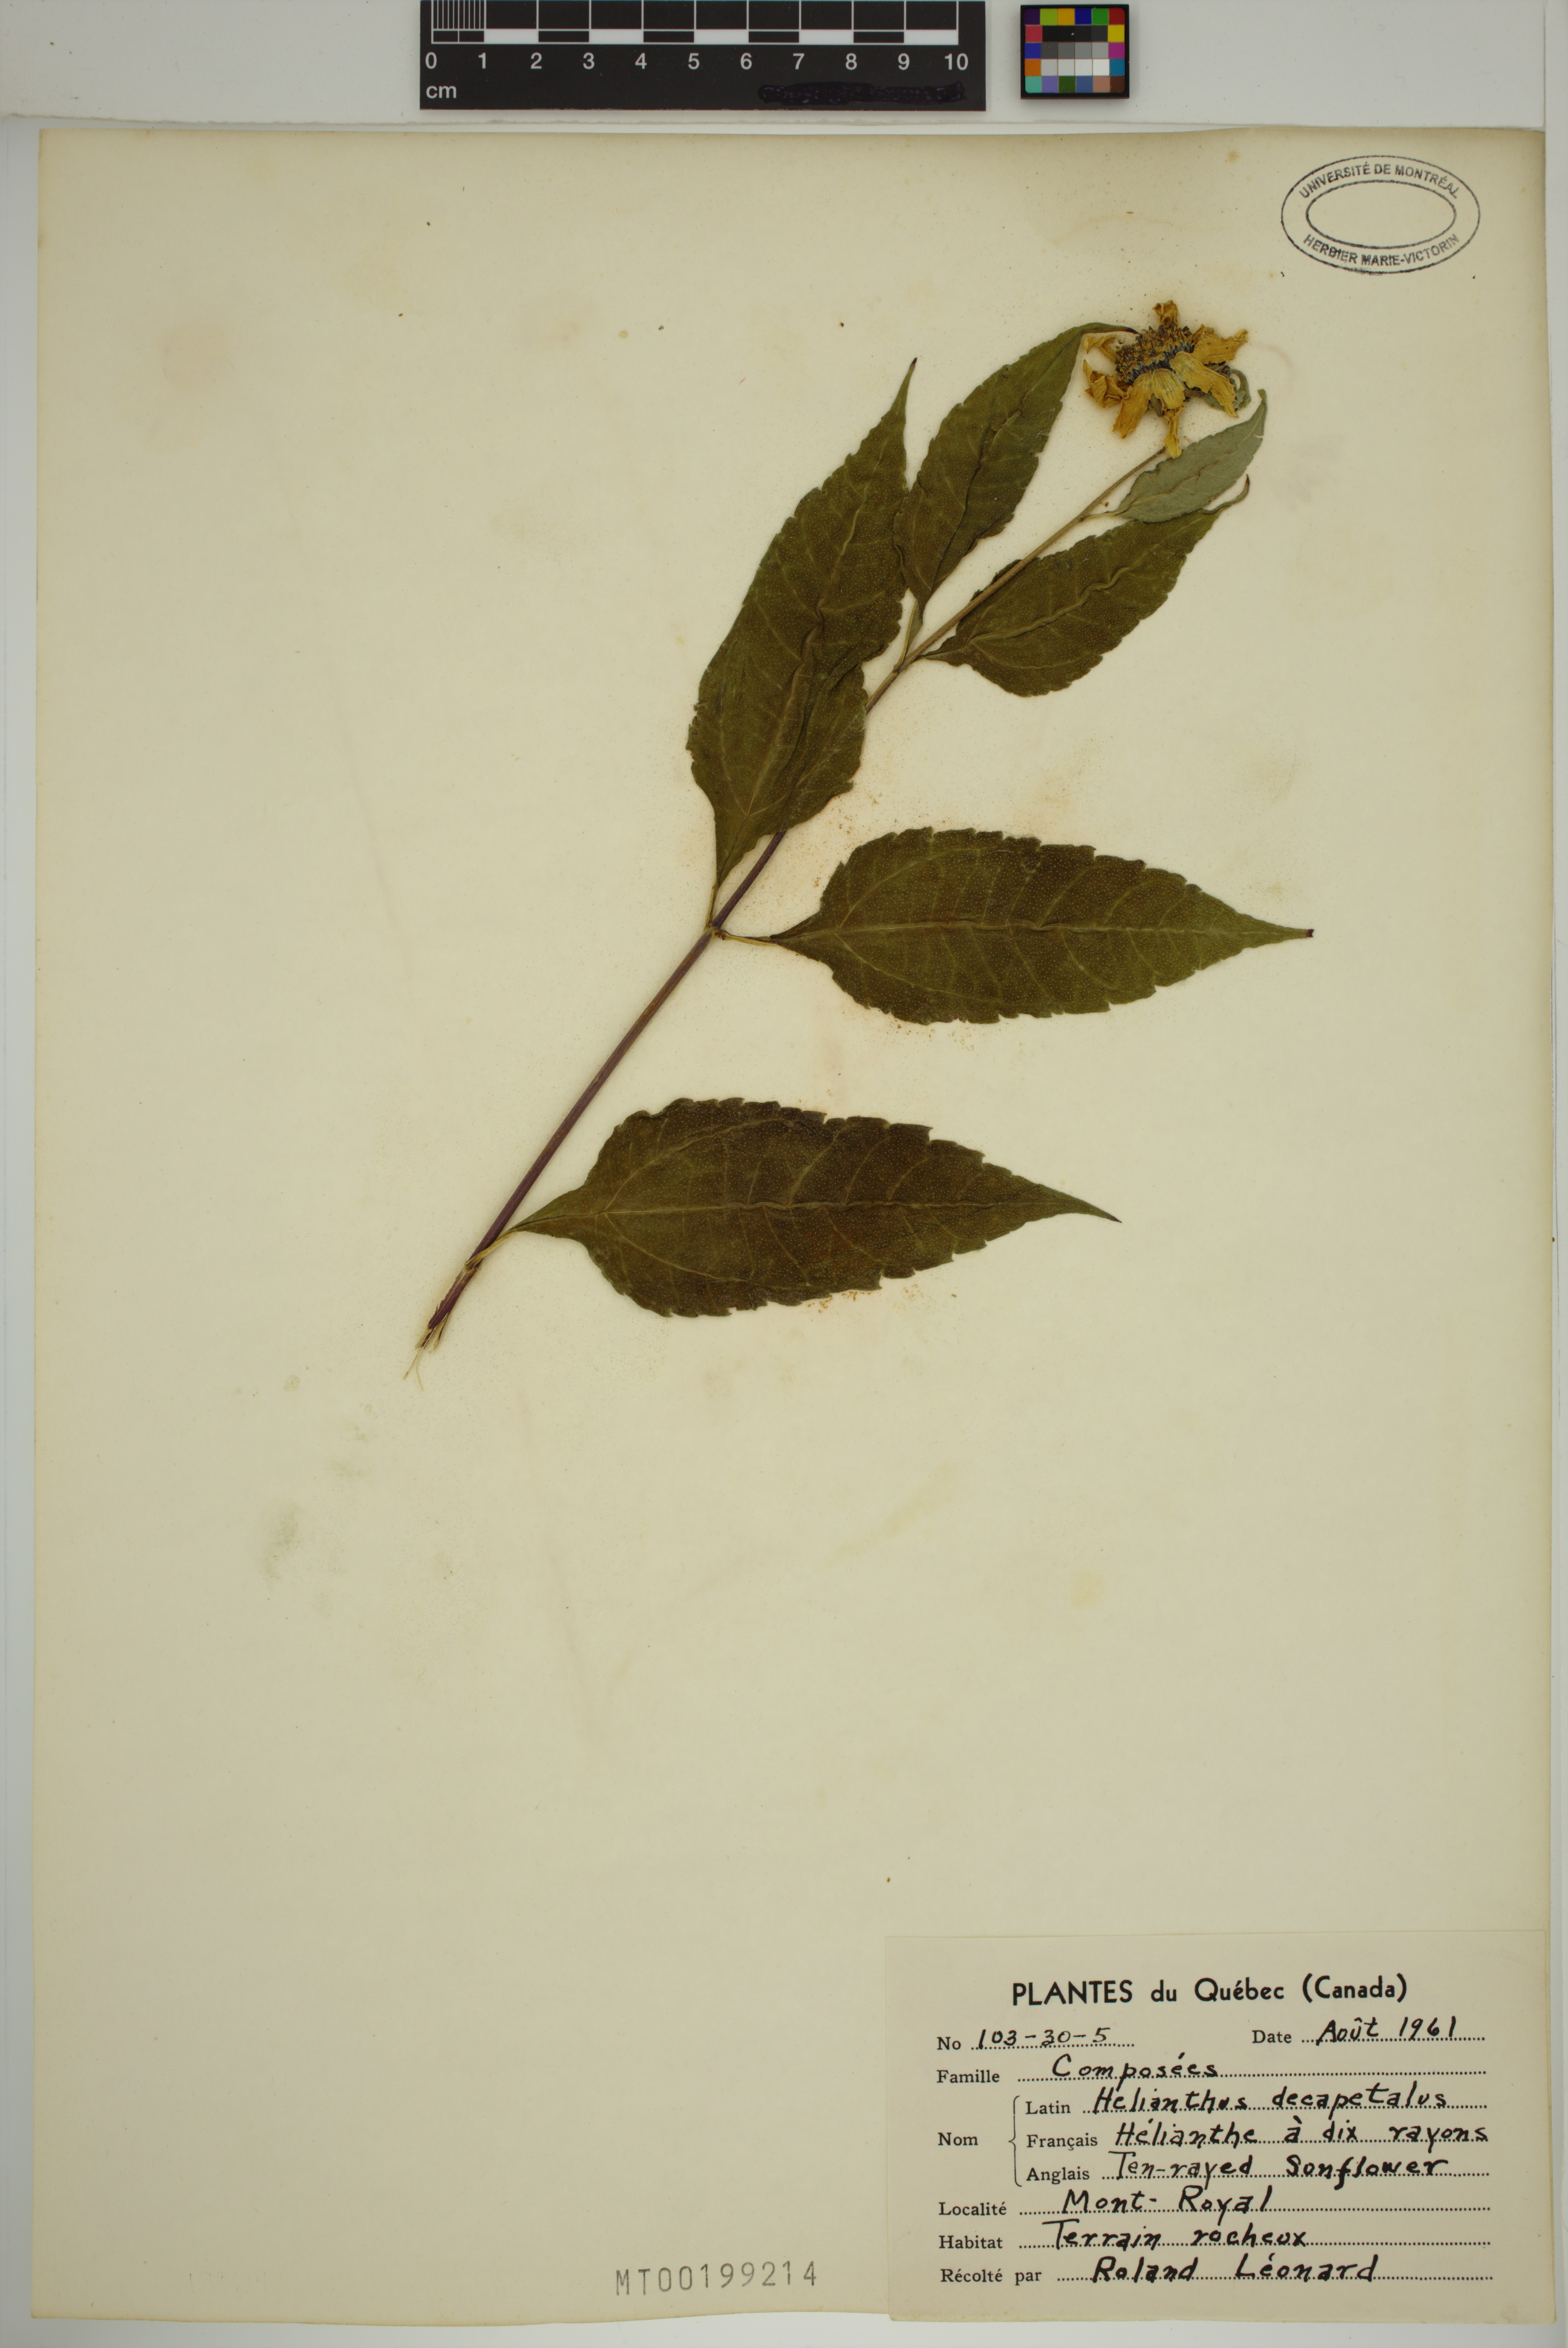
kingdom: Plantae
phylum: Tracheophyta
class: Magnoliopsida
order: Asterales
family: Asteraceae
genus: Helianthus
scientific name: Helianthus decapetalus
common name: Thin-leaved sunflower
